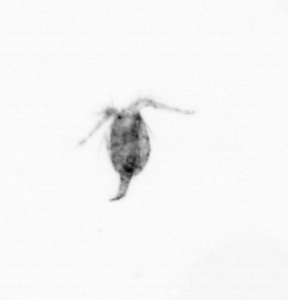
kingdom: Animalia
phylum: Arthropoda
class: Copepoda
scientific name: Copepoda
